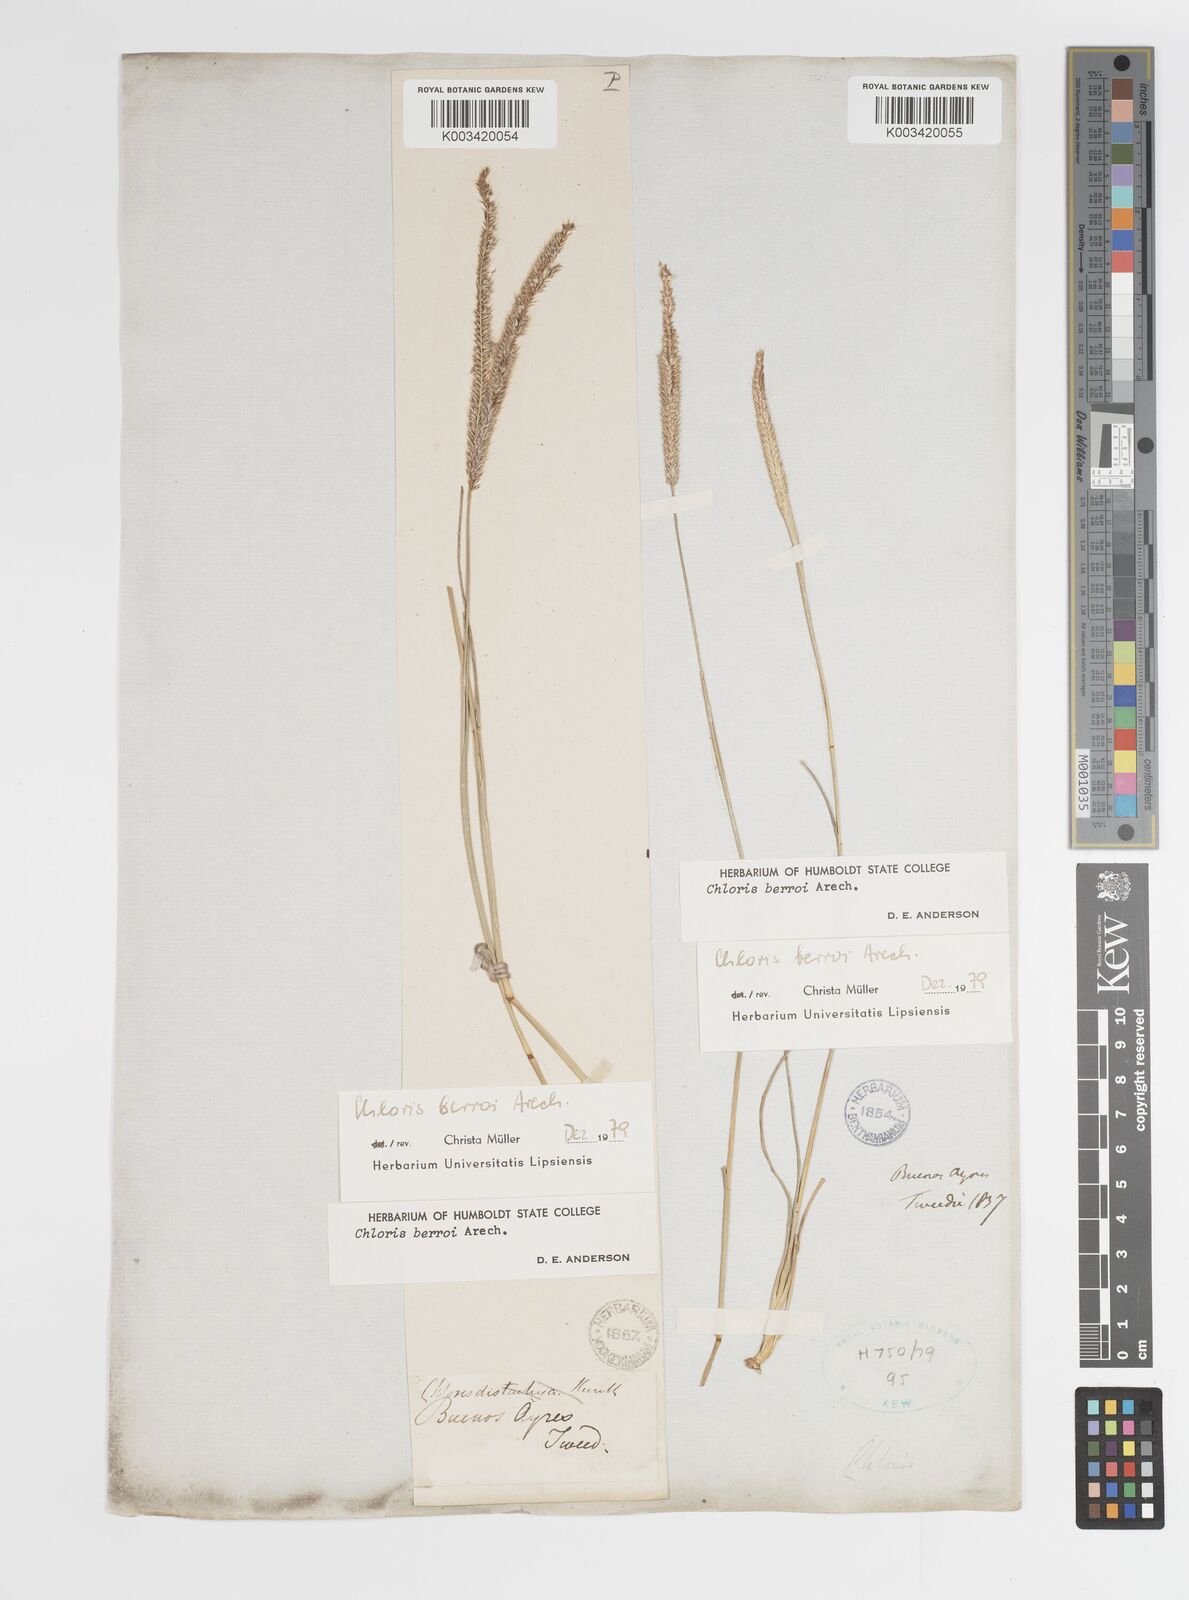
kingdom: Plantae
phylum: Tracheophyta
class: Liliopsida
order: Poales
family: Poaceae
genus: Stapfochloa
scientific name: Stapfochloa berroi
